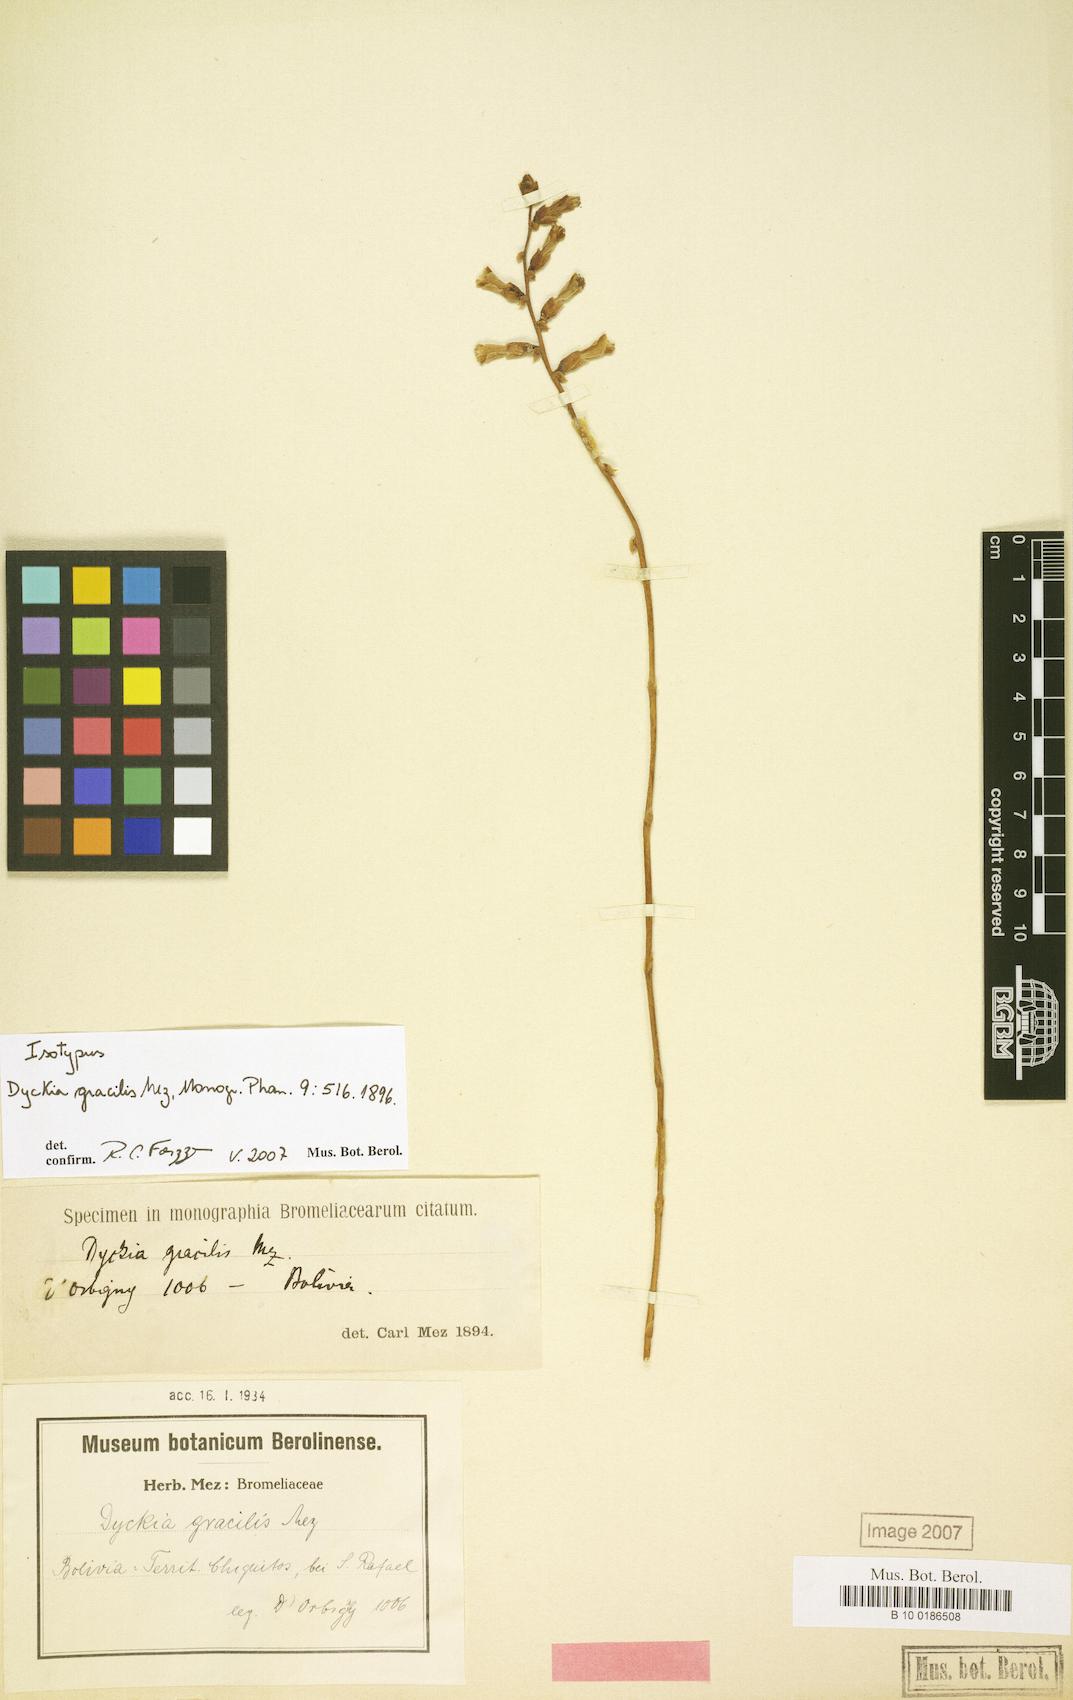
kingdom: Plantae
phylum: Tracheophyta
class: Liliopsida
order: Poales
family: Bromeliaceae
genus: Dyckia
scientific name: Dyckia gracilis
